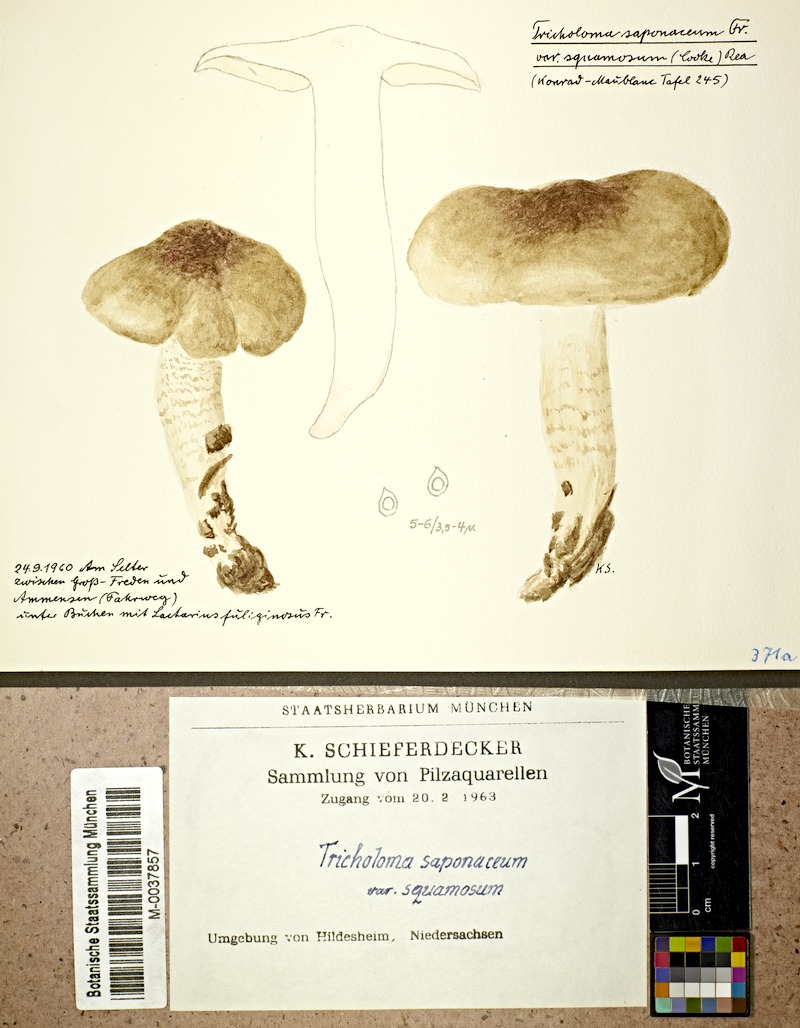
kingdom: Fungi
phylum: Basidiomycota
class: Agaricomycetes
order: Agaricales
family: Tricholomataceae
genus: Tricholoma
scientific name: Tricholoma saponaceum
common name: Soapy trich
